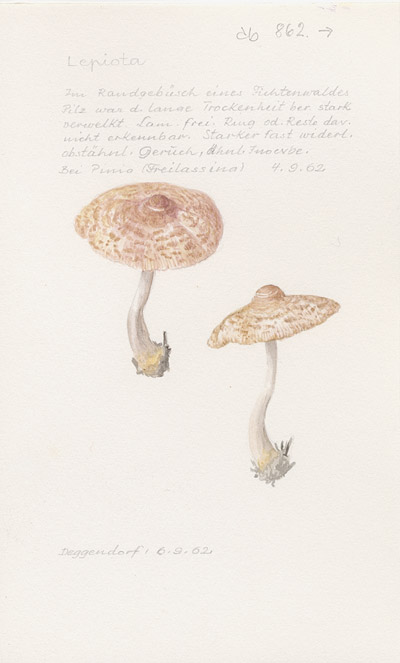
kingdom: Fungi
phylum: Basidiomycota
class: Agaricomycetes
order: Agaricales
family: Agaricaceae
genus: Lepiota
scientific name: Lepiota
